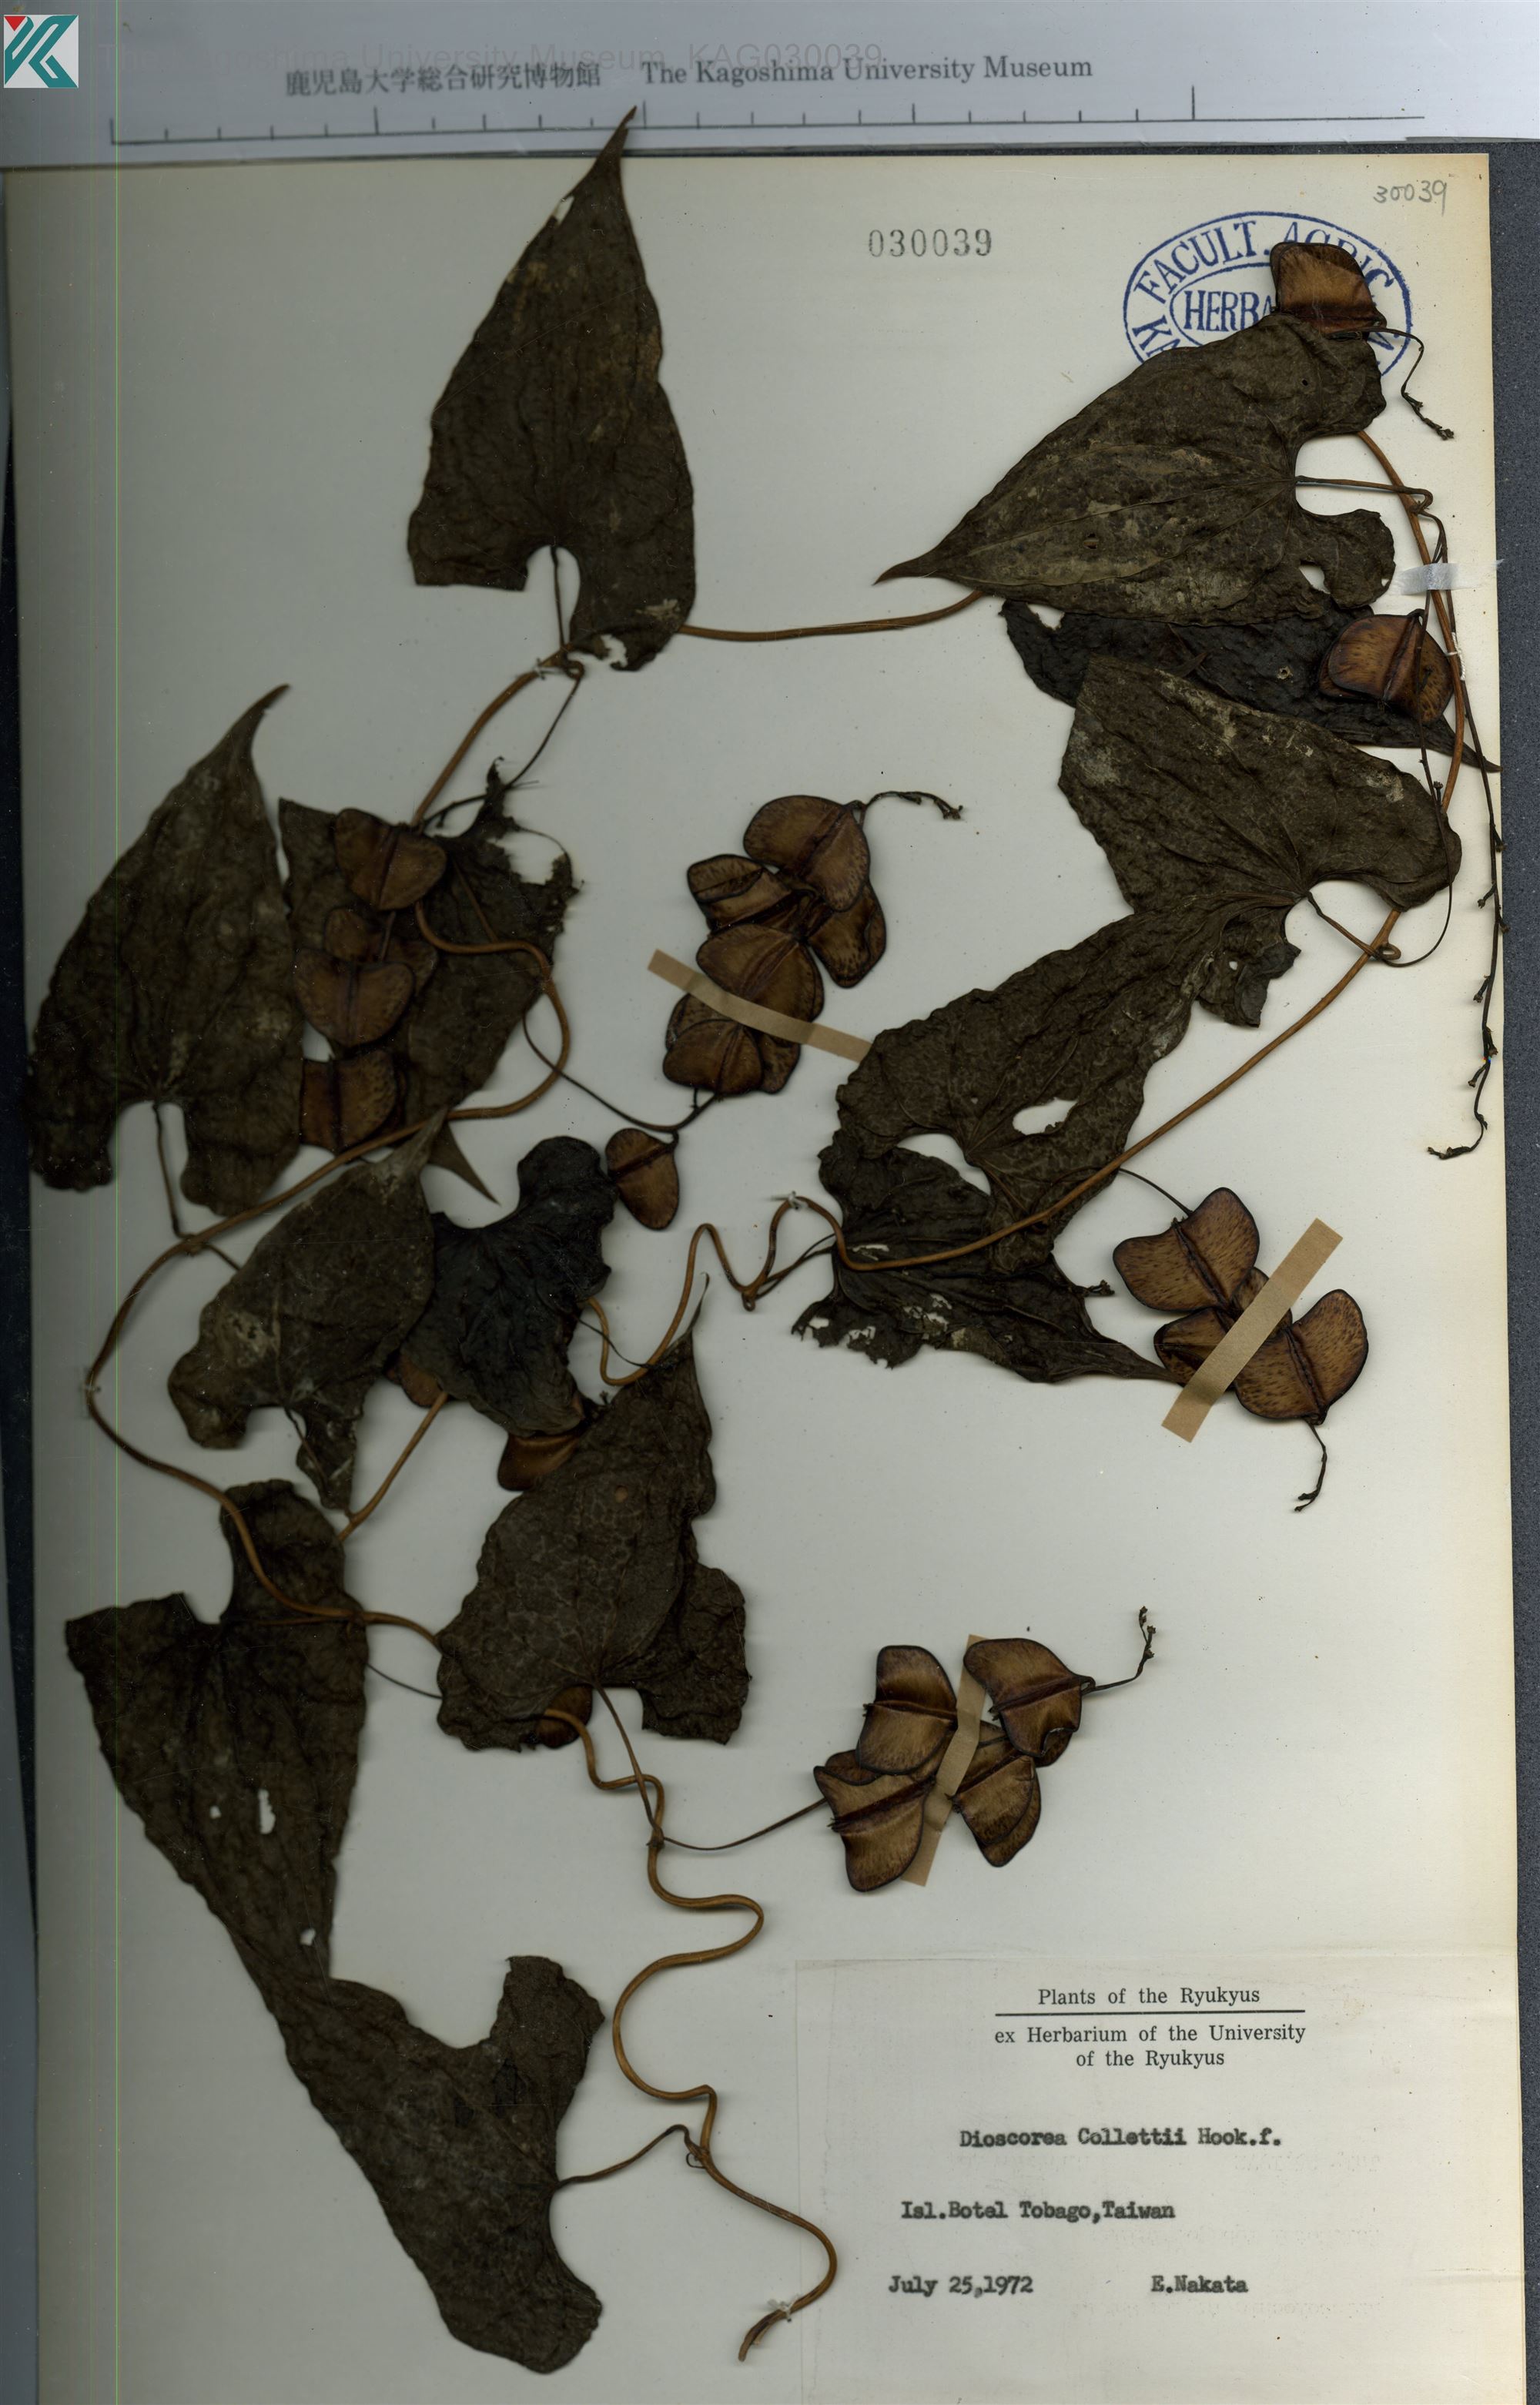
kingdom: Plantae
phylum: Tracheophyta
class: Liliopsida
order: Dioscoreales
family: Dioscoreaceae
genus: Dioscorea
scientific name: Dioscorea collettii
